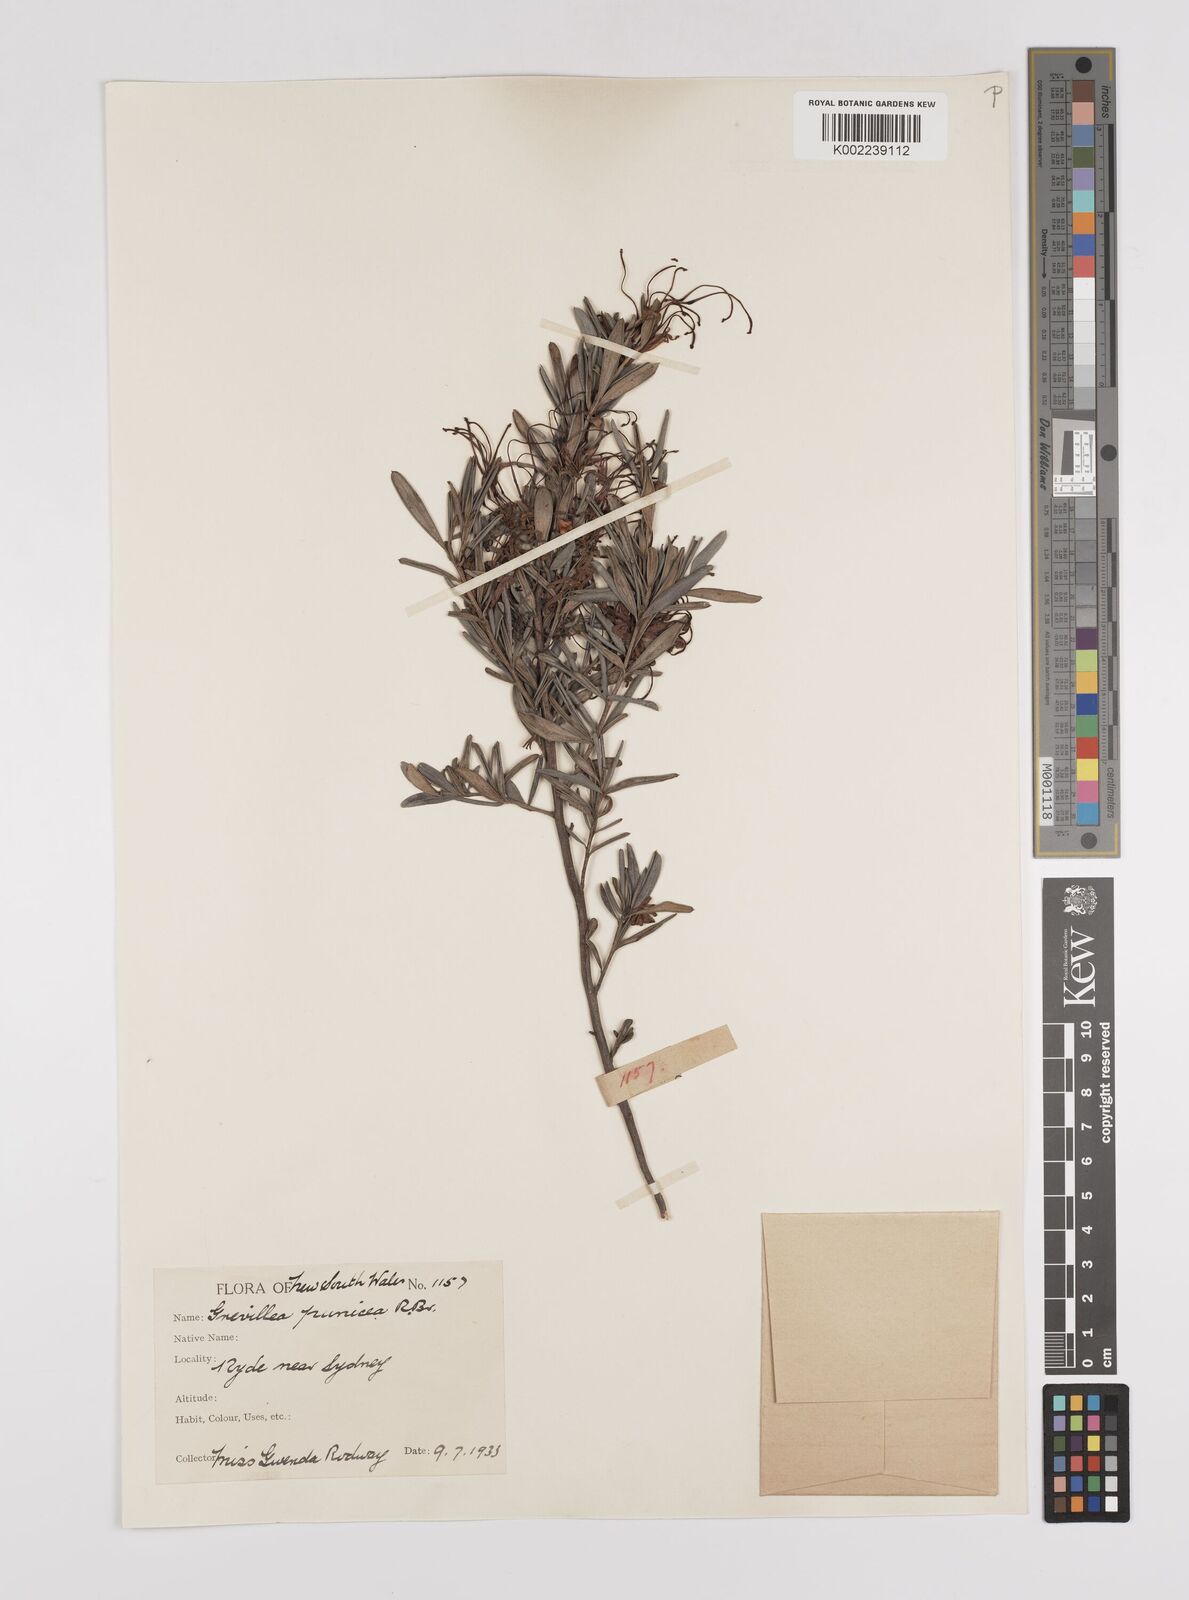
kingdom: Plantae
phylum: Tracheophyta
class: Magnoliopsida
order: Proteales
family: Proteaceae
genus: Grevillea
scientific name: Grevillea speciosa
